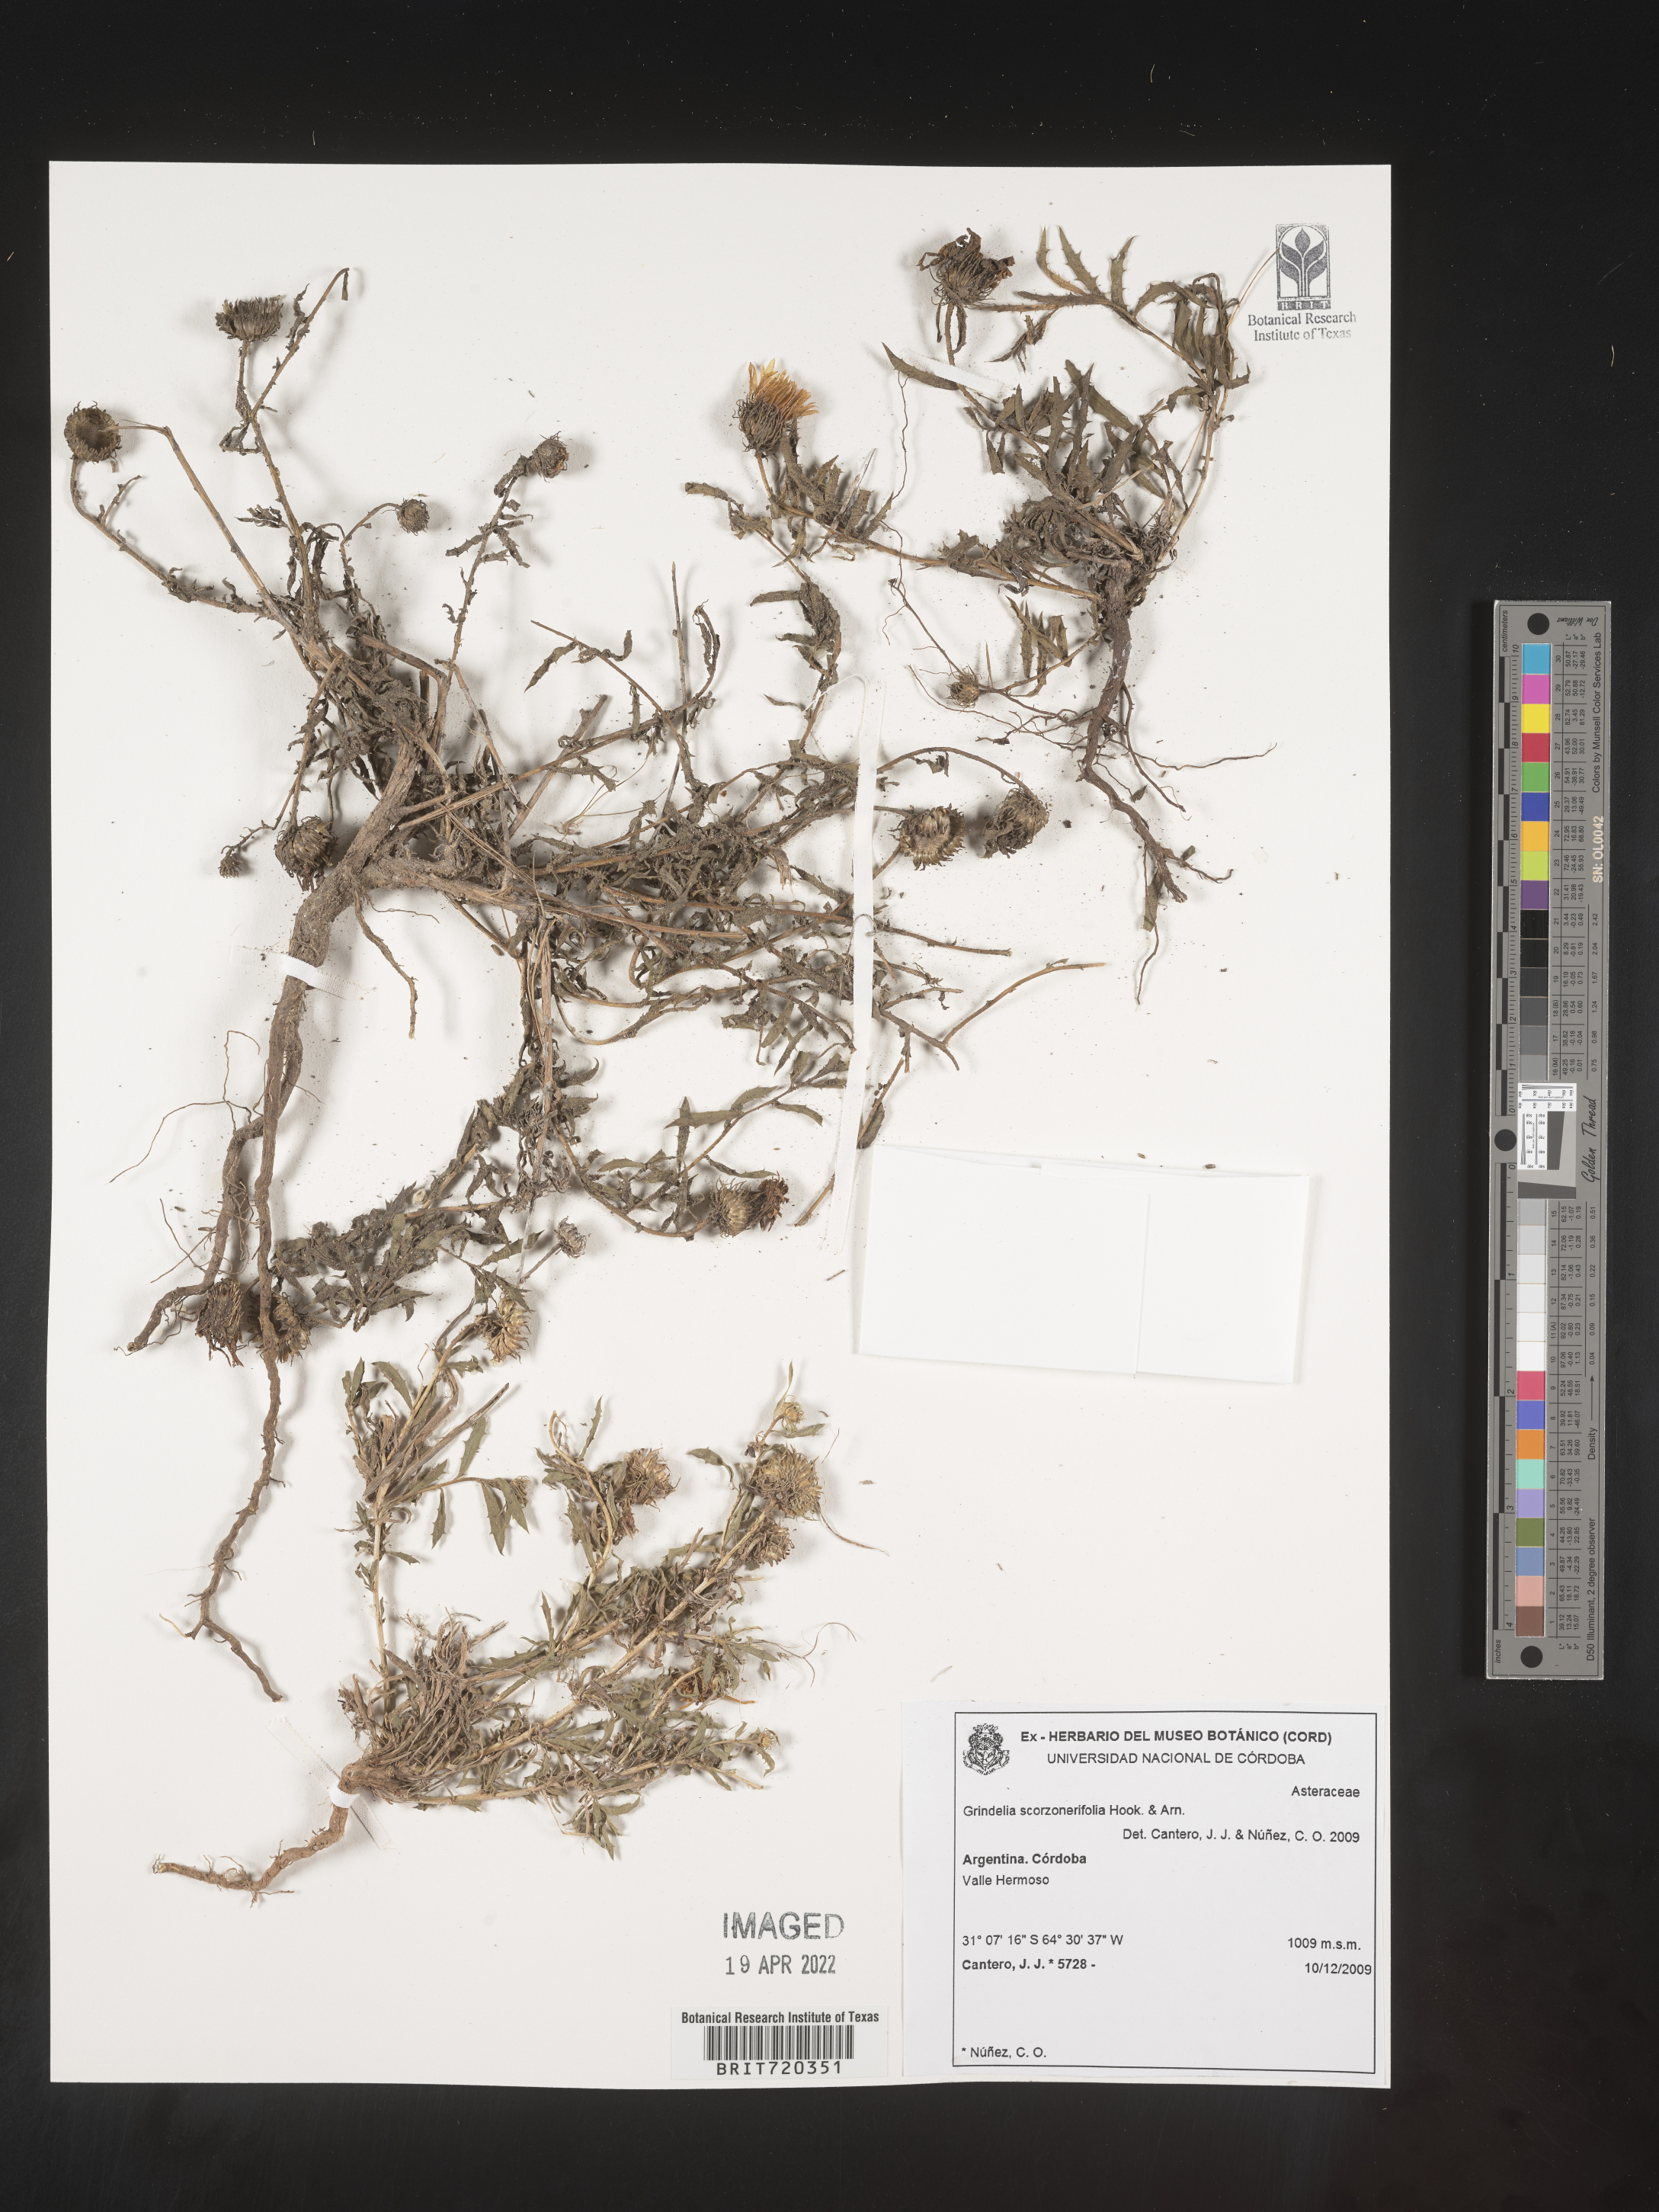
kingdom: Plantae
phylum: Tracheophyta
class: Magnoliopsida
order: Asterales
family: Asteraceae
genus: Grindelia
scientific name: Grindelia
